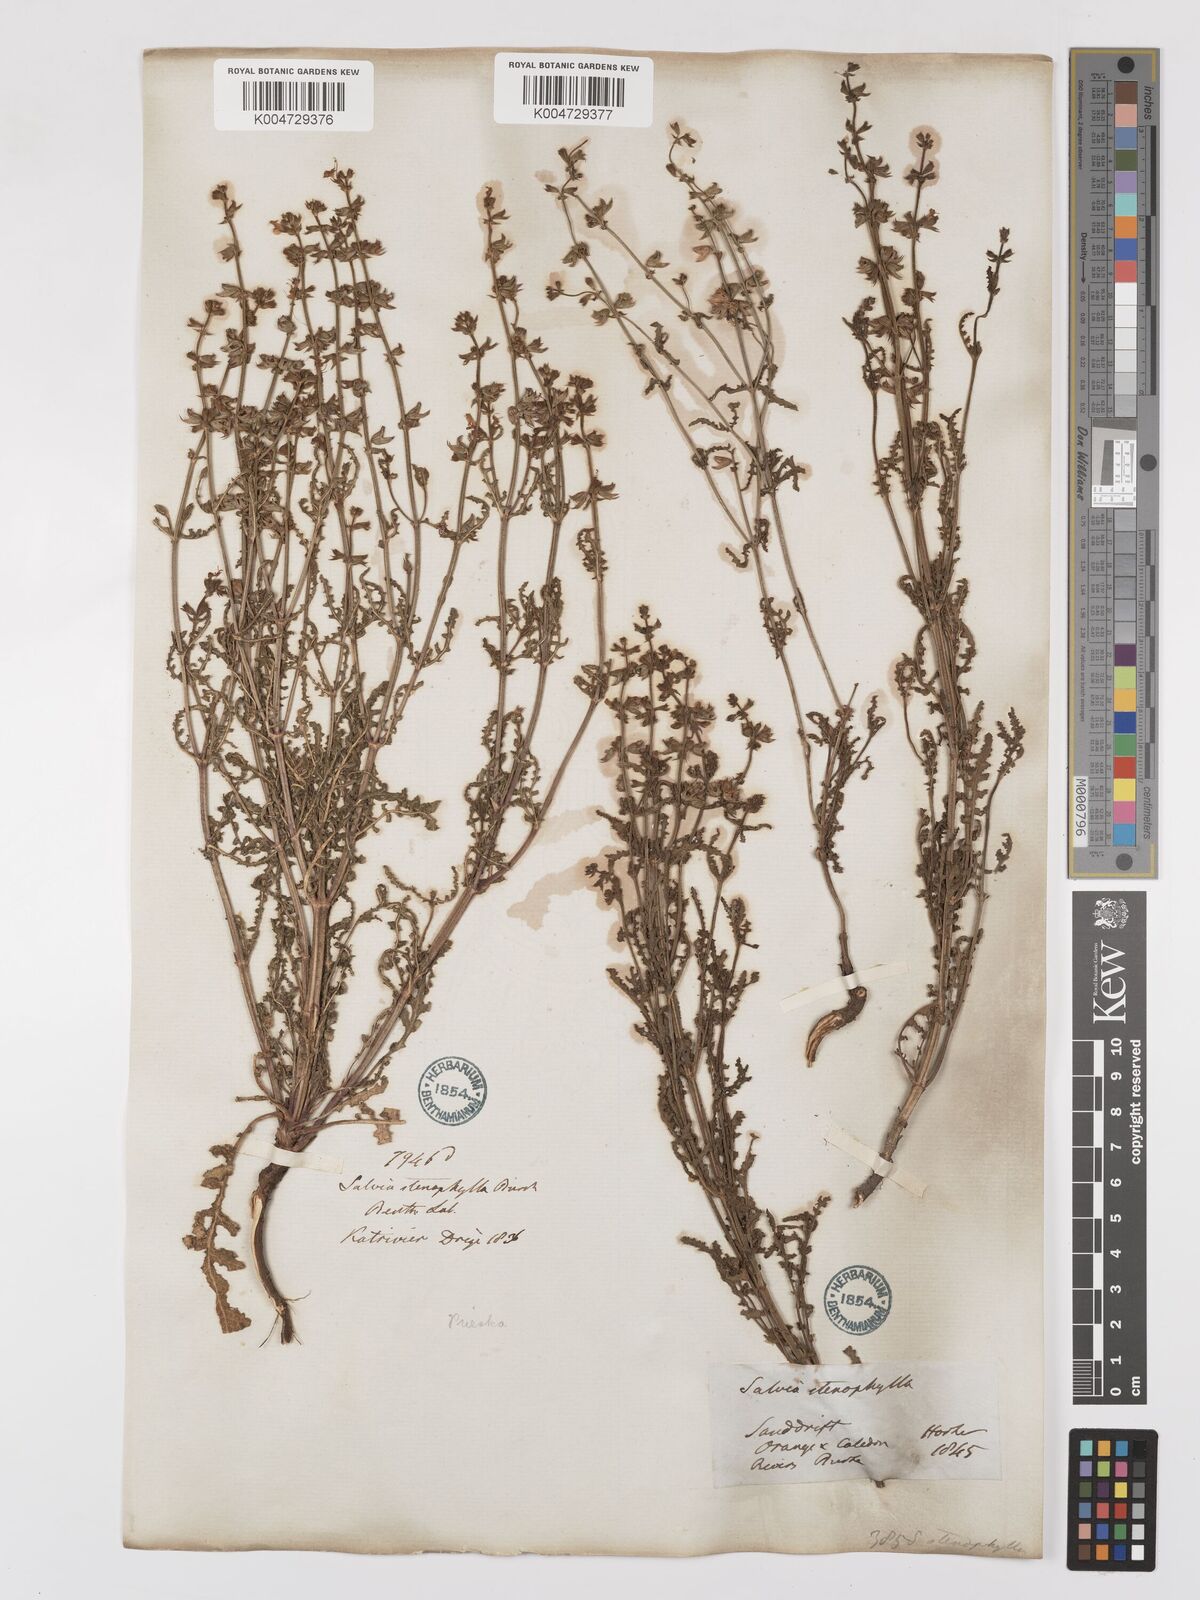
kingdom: Plantae
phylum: Tracheophyta
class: Magnoliopsida
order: Lamiales
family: Lamiaceae
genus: Salvia
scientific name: Salvia stenophylla
